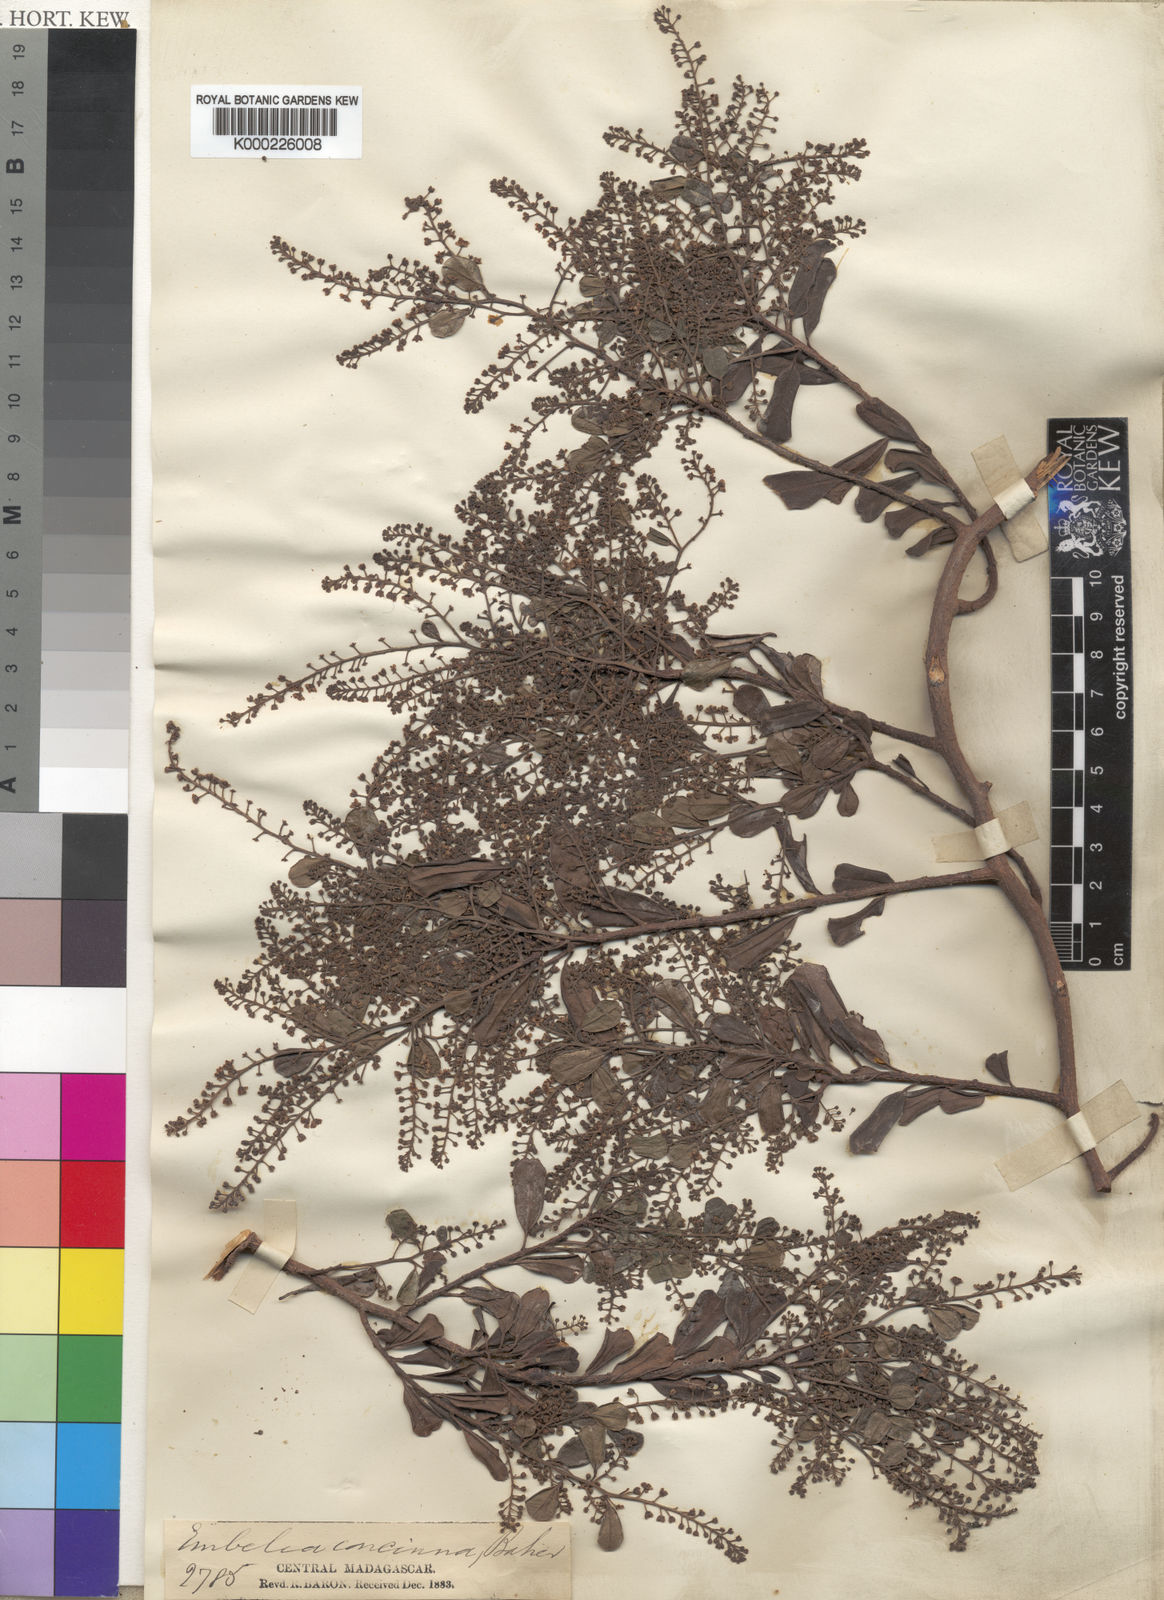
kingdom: Plantae
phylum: Tracheophyta
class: Magnoliopsida
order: Ericales
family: Primulaceae
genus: Embelia
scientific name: Embelia concinna
